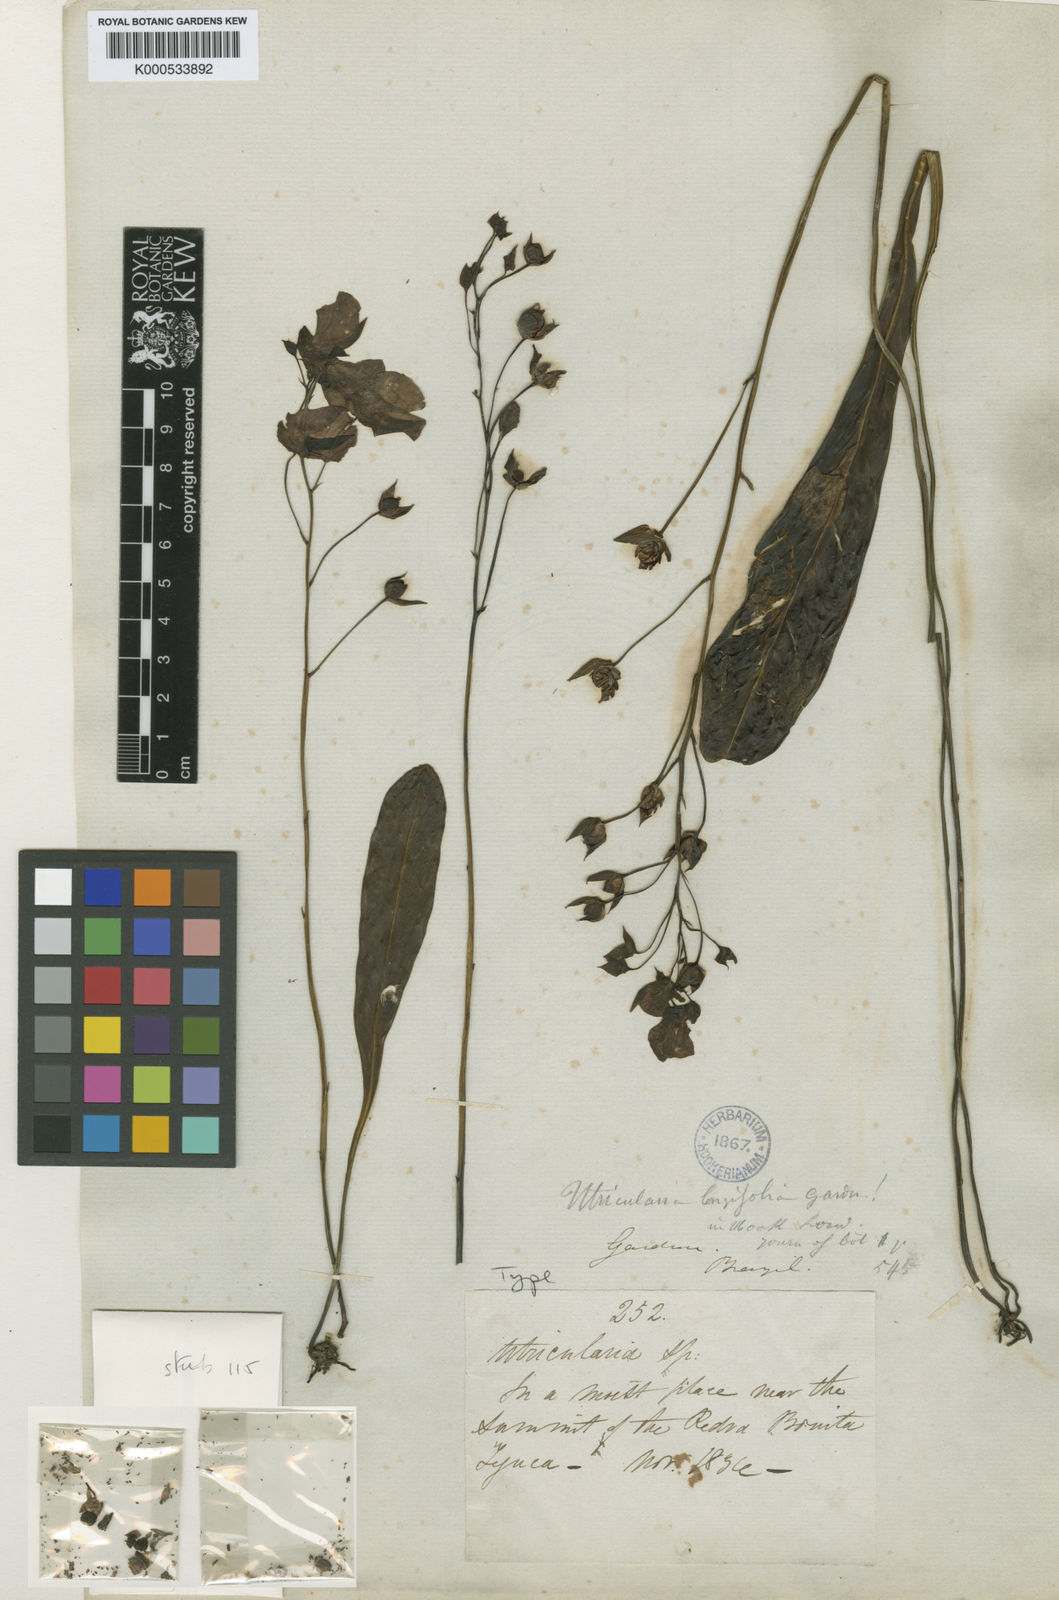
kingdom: Plantae
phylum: Tracheophyta
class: Magnoliopsida
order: Lamiales
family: Lentibulariaceae
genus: Utricularia
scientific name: Utricularia longifolia
